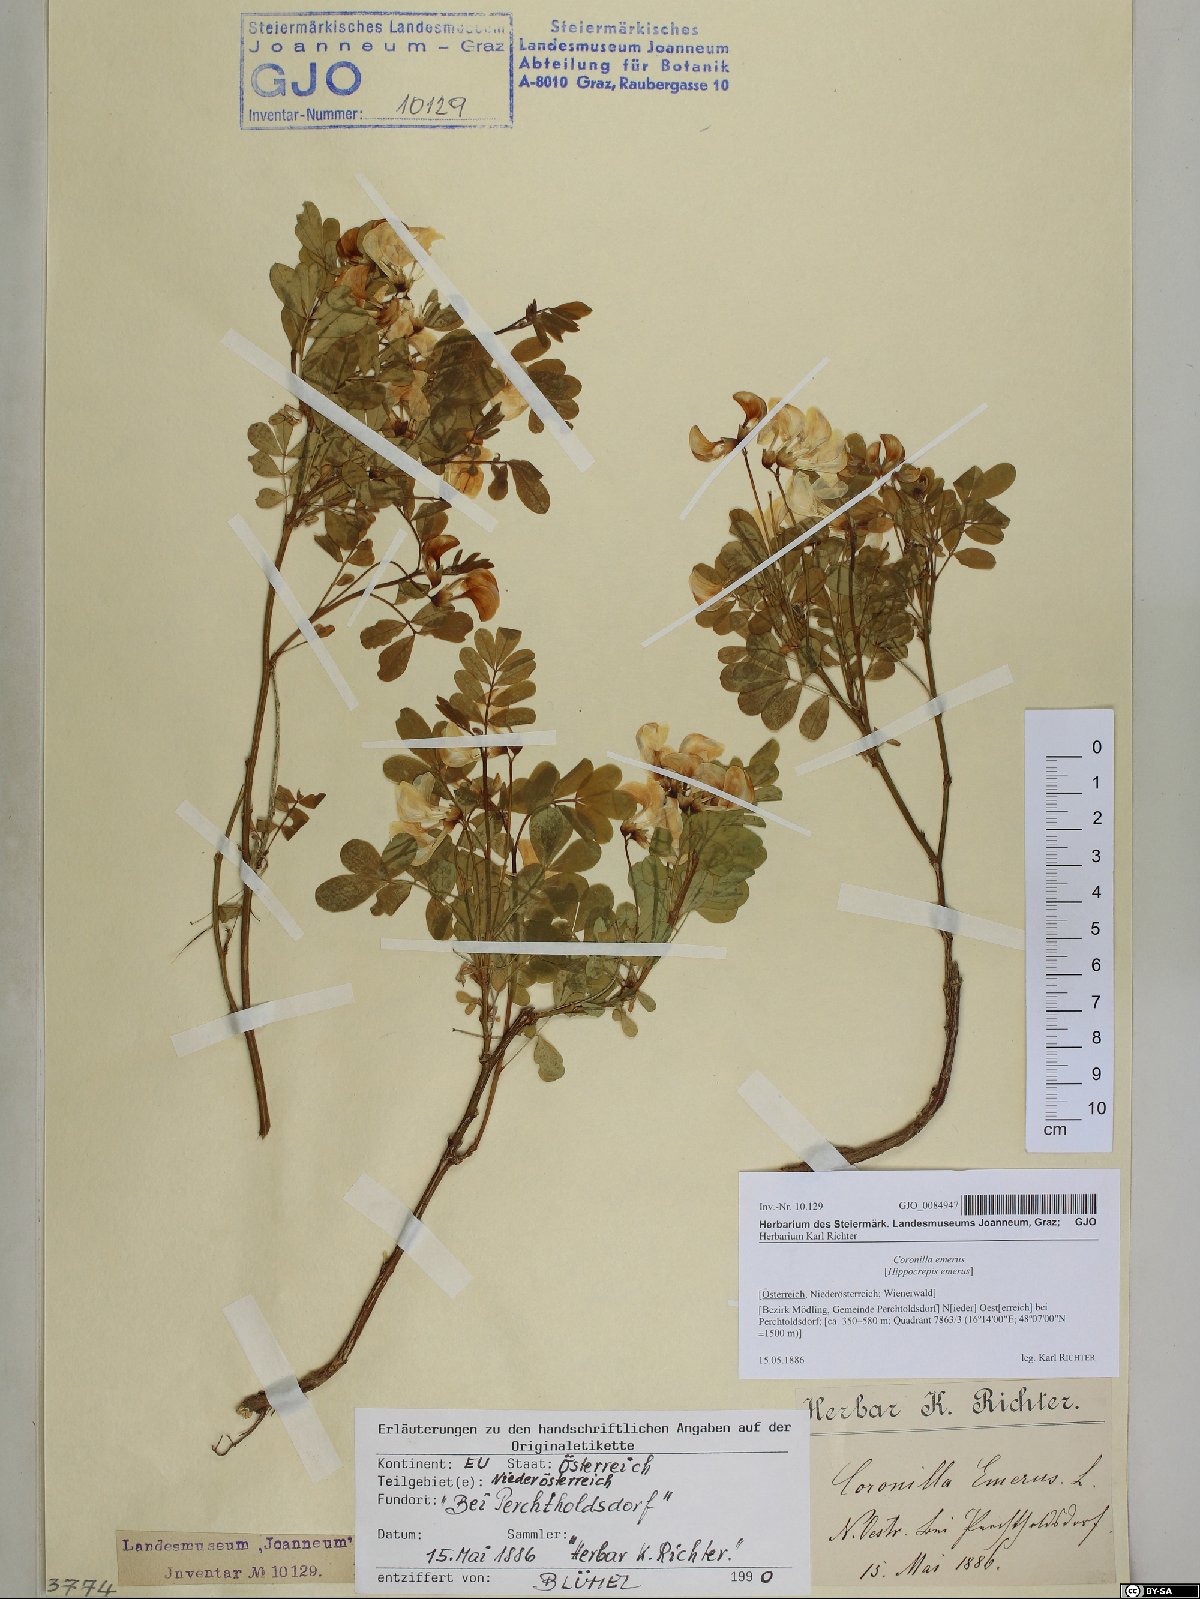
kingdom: Plantae
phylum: Tracheophyta
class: Magnoliopsida
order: Fabales
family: Fabaceae
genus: Hippocrepis
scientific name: Hippocrepis emerus
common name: Scorpion senna
